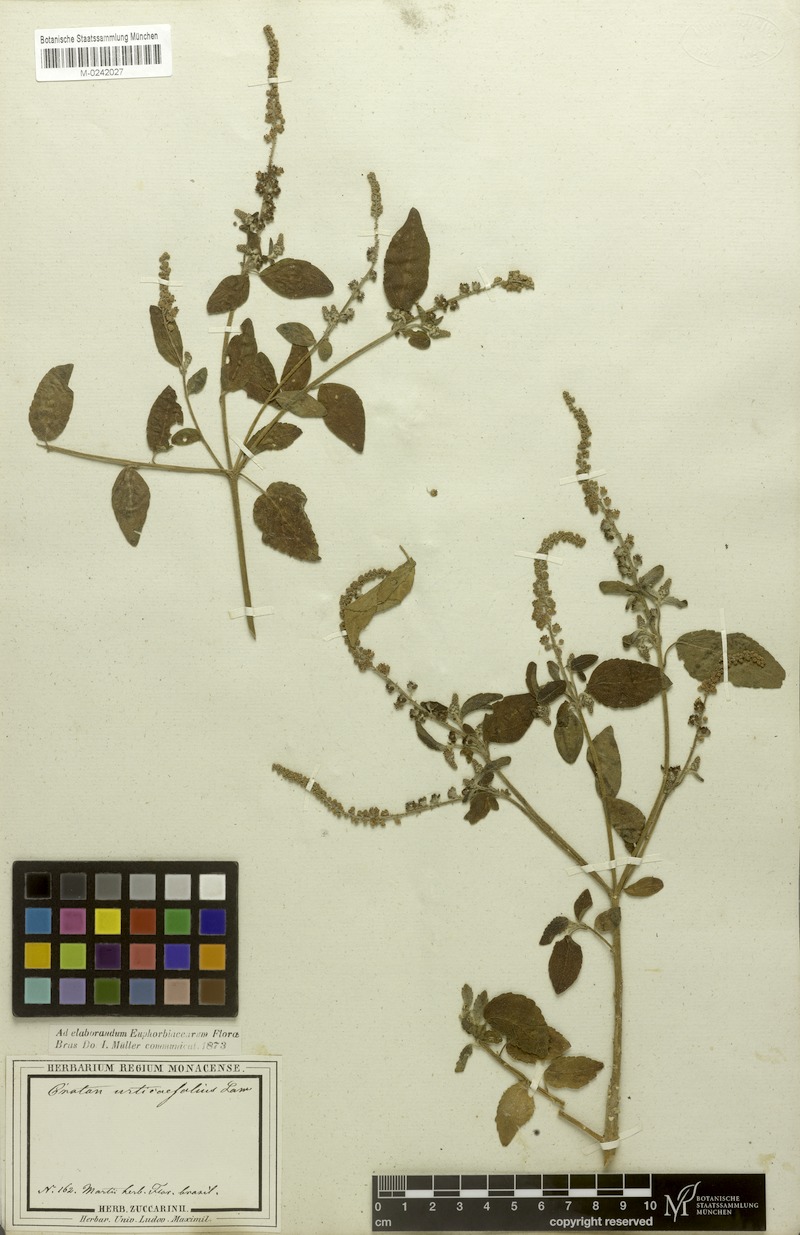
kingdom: Plantae
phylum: Tracheophyta
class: Magnoliopsida
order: Malpighiales
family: Euphorbiaceae
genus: Croton
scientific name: Croton urticifolius
